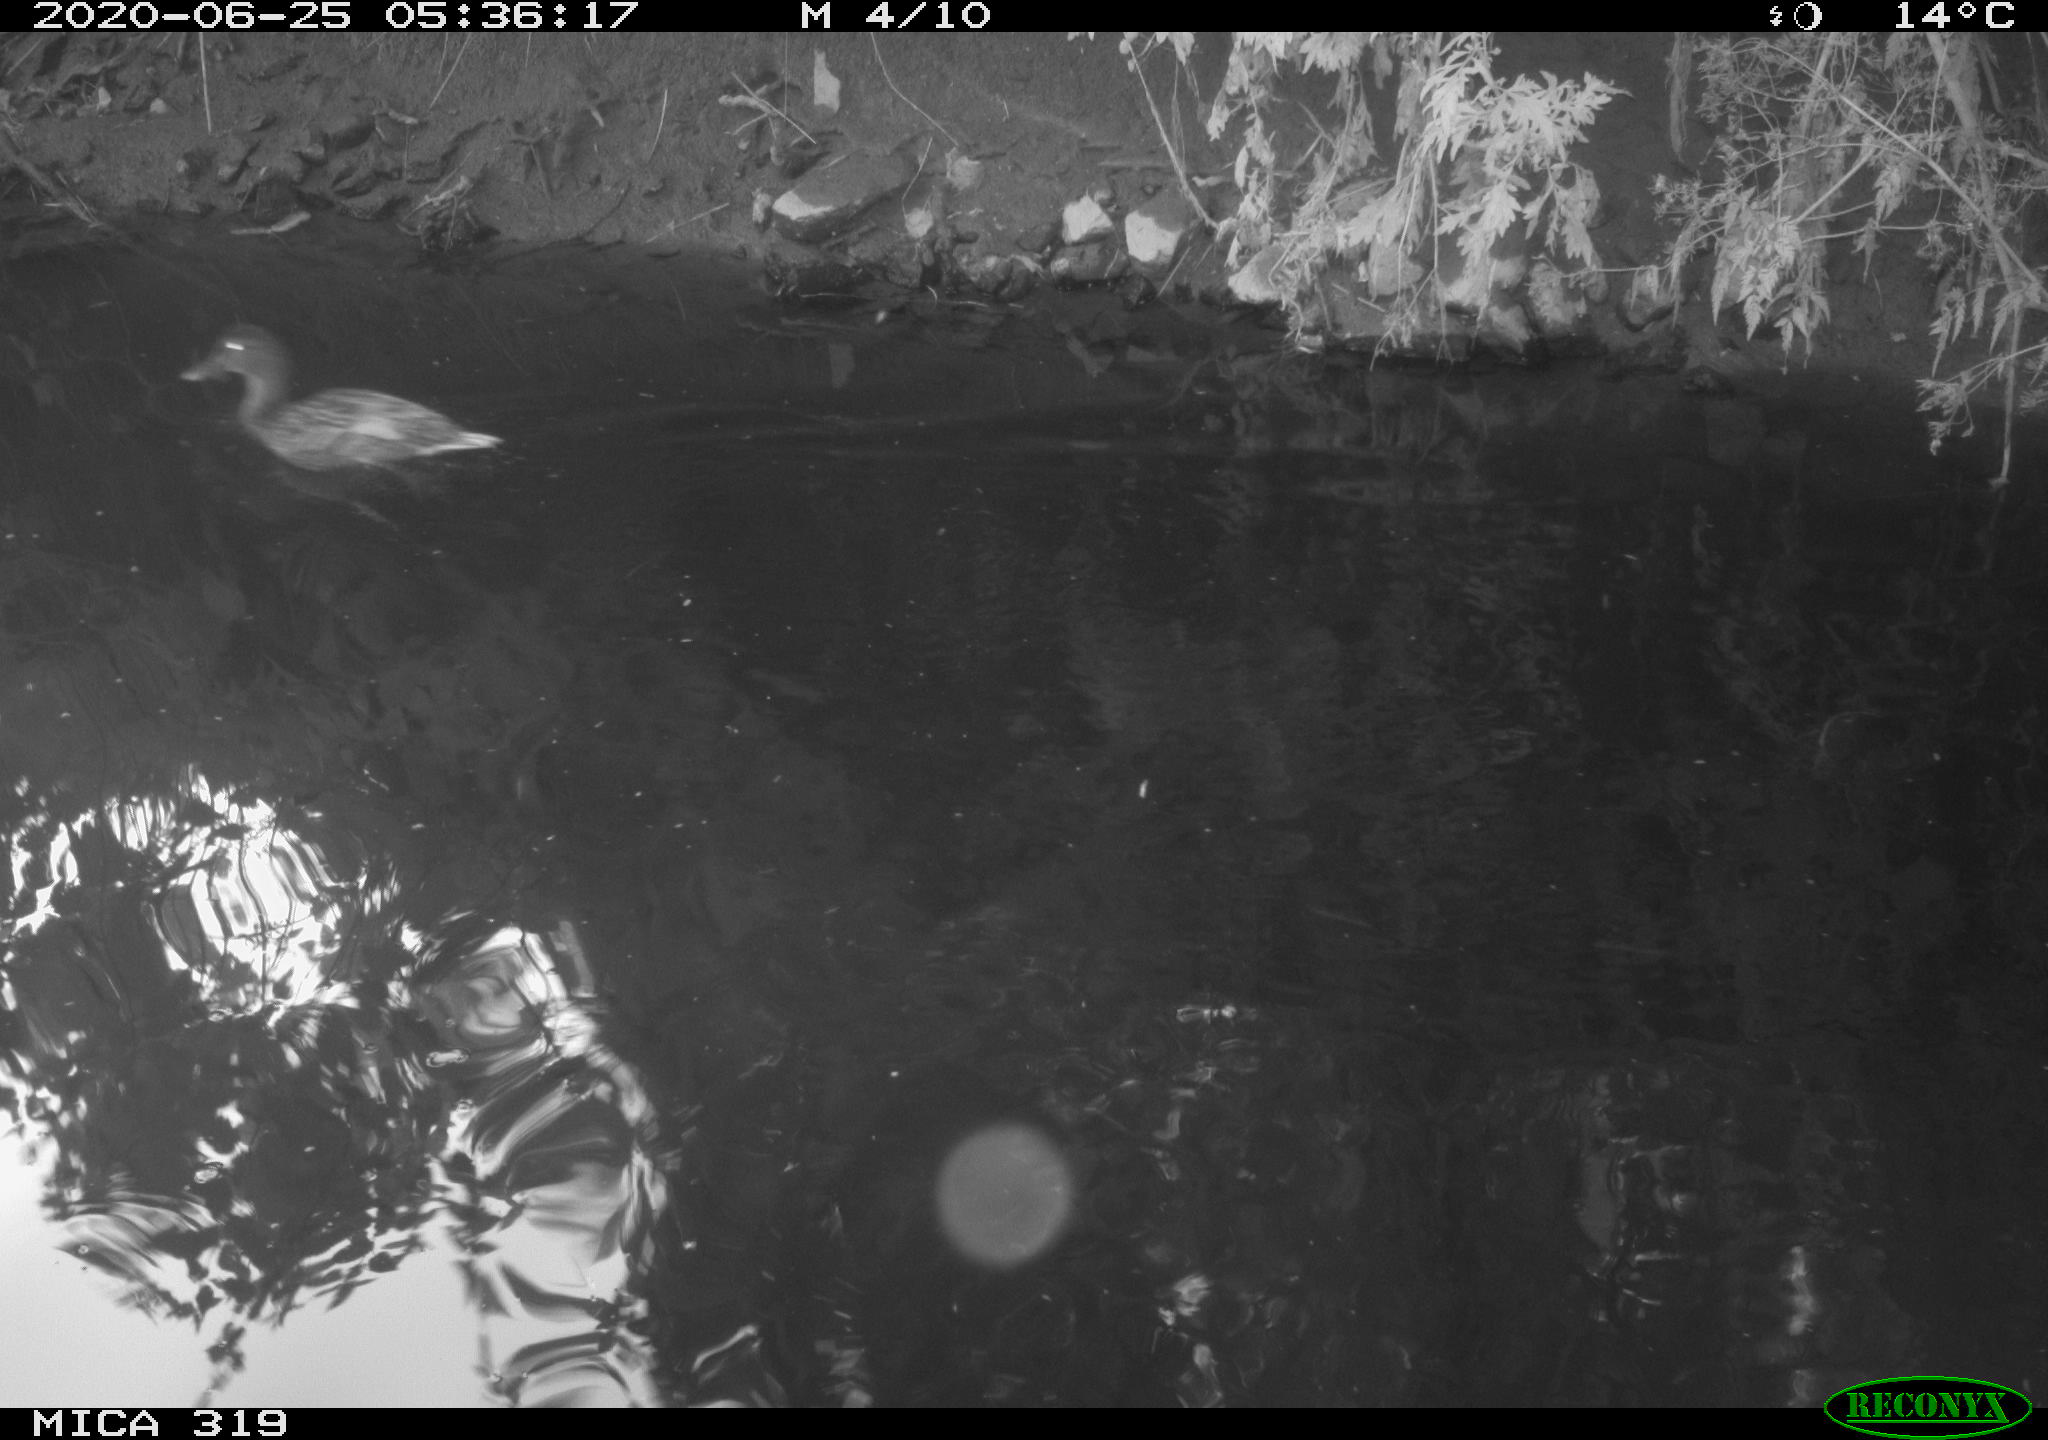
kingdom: Animalia
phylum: Chordata
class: Aves
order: Anseriformes
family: Anatidae
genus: Anas
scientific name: Anas platyrhynchos
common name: Mallard
